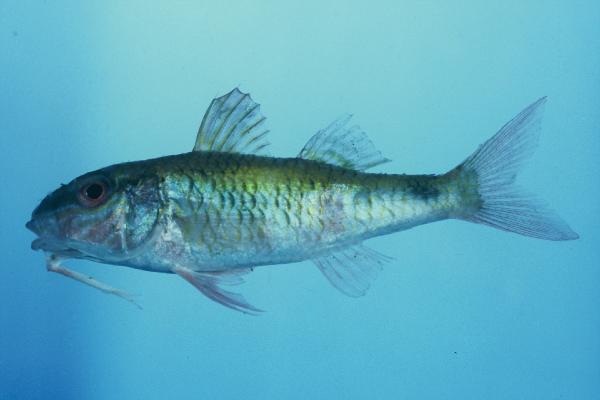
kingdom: Animalia
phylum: Chordata
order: Perciformes
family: Mullidae
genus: Parupeneus
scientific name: Parupeneus indicus
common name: Indian goatfish
